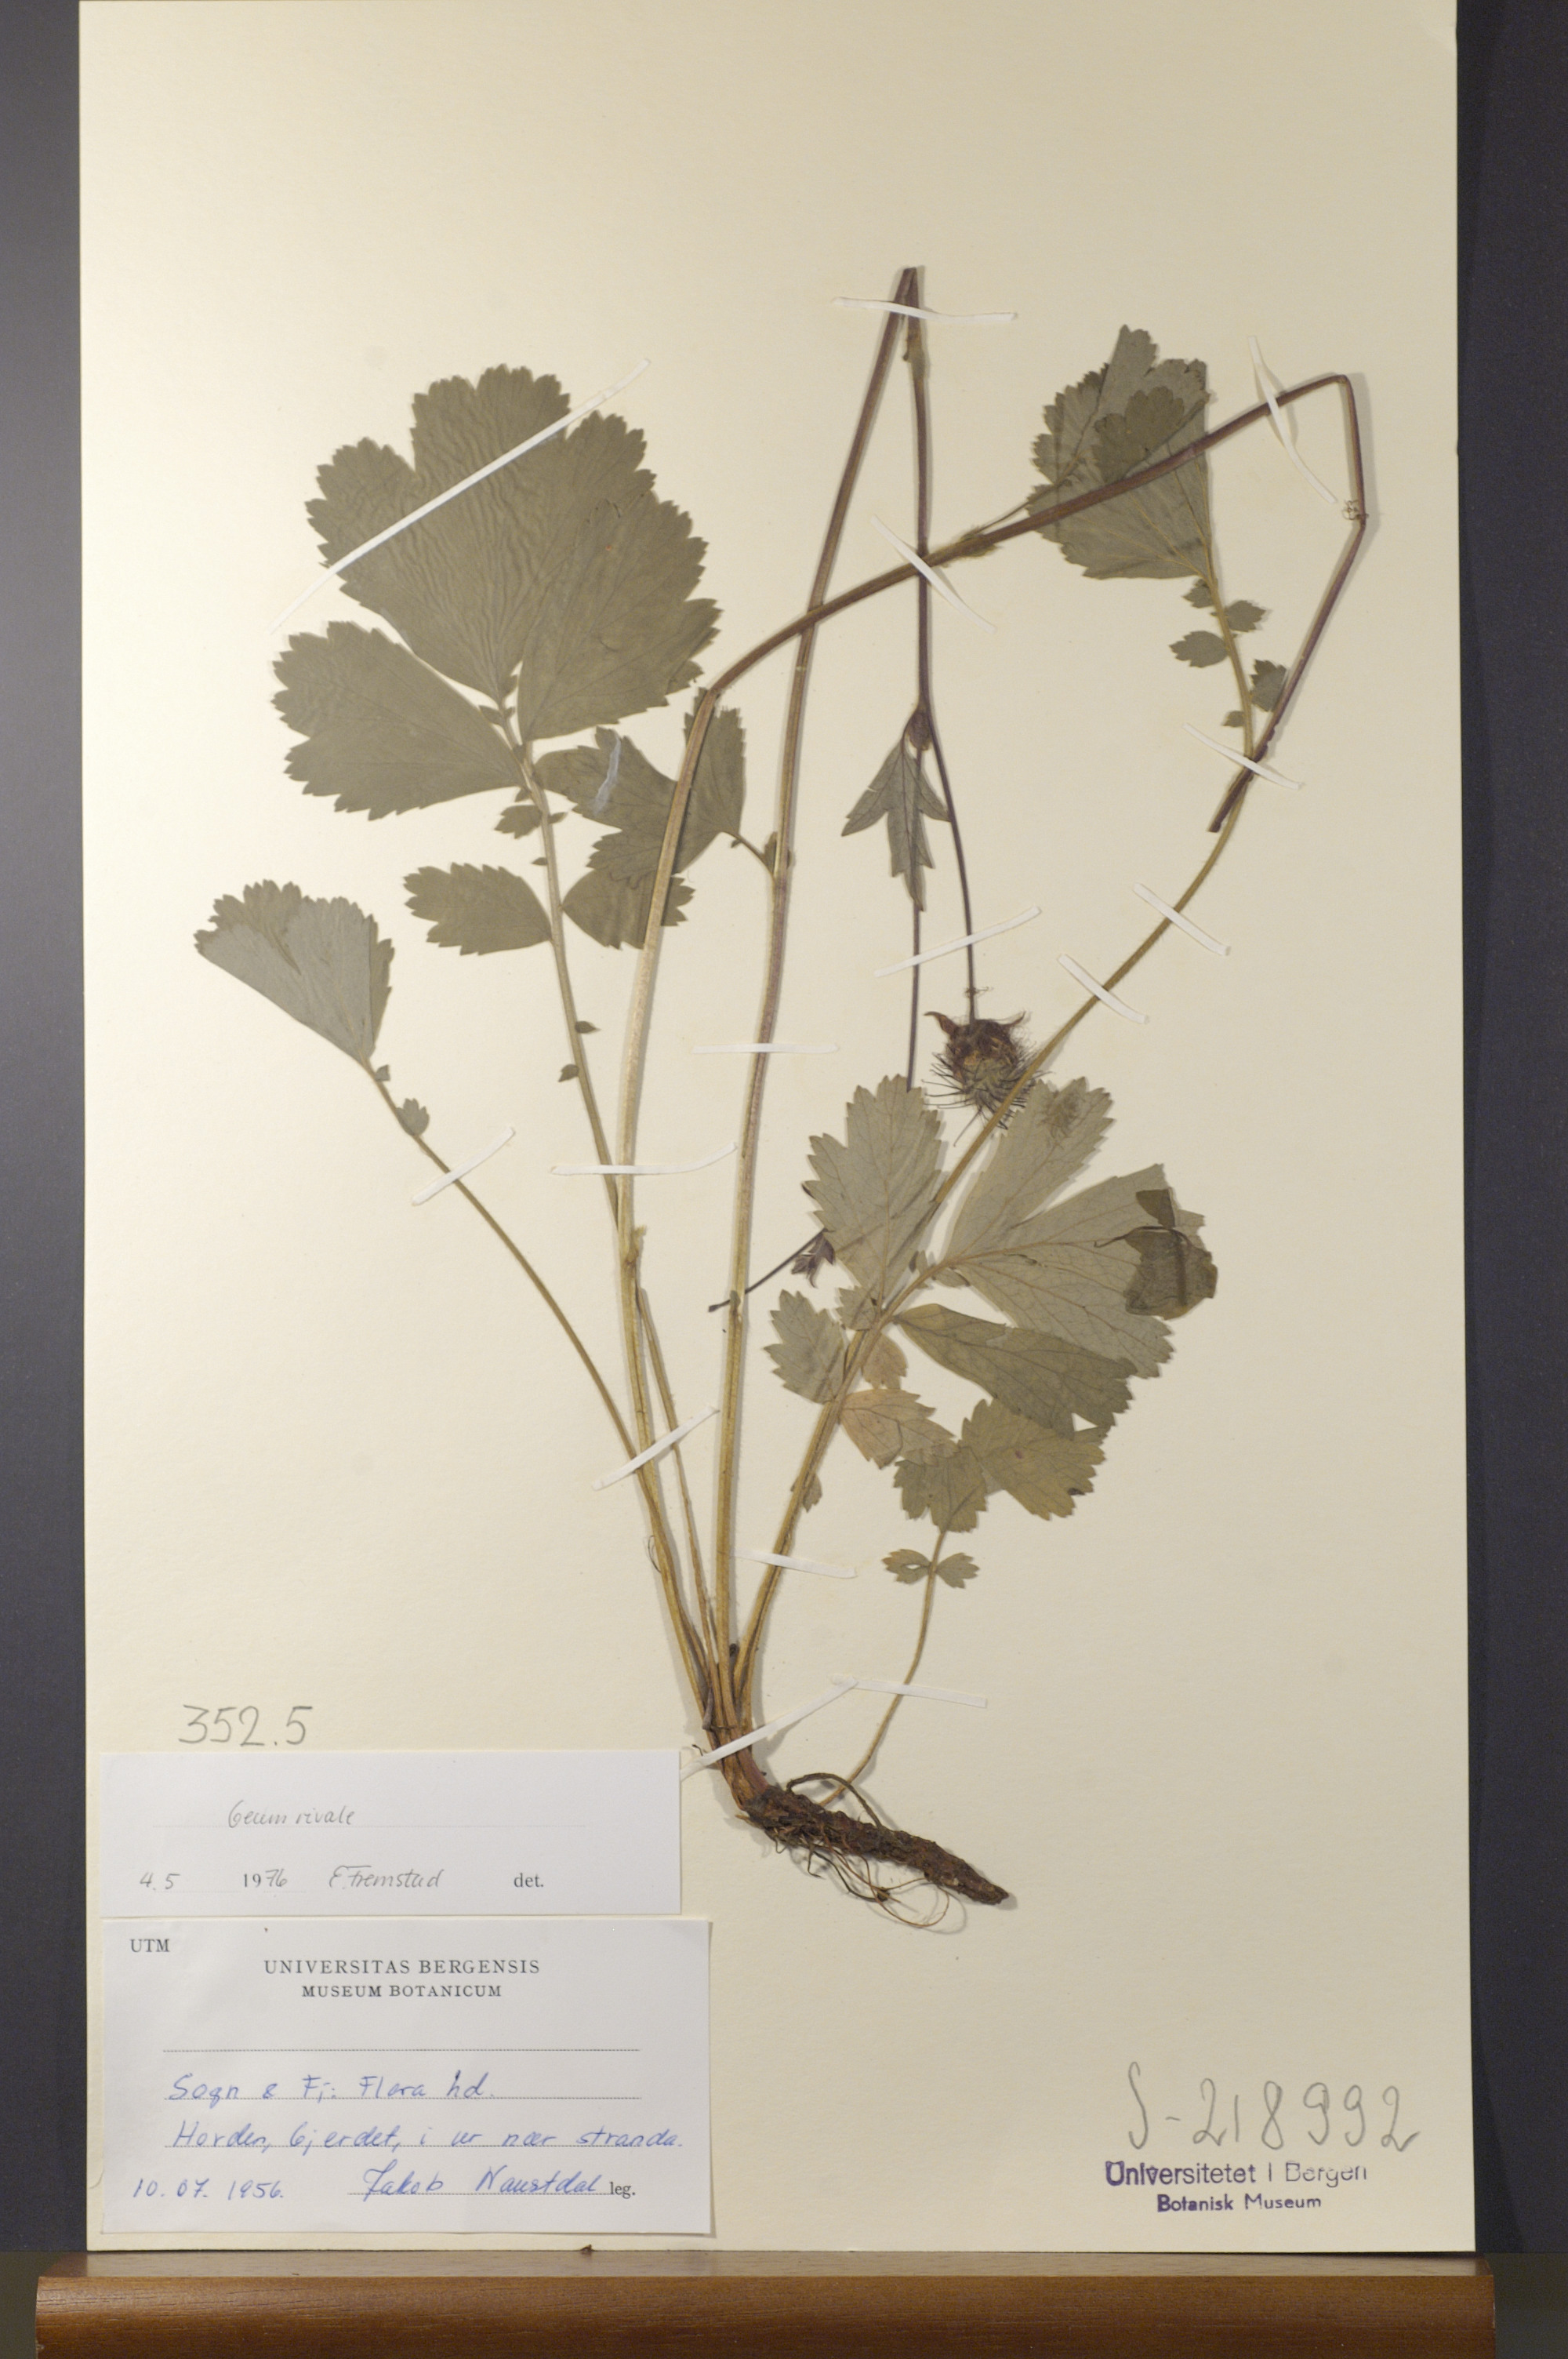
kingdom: Plantae
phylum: Tracheophyta
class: Magnoliopsida
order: Rosales
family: Rosaceae
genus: Geum
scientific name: Geum rivale
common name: Water avens
